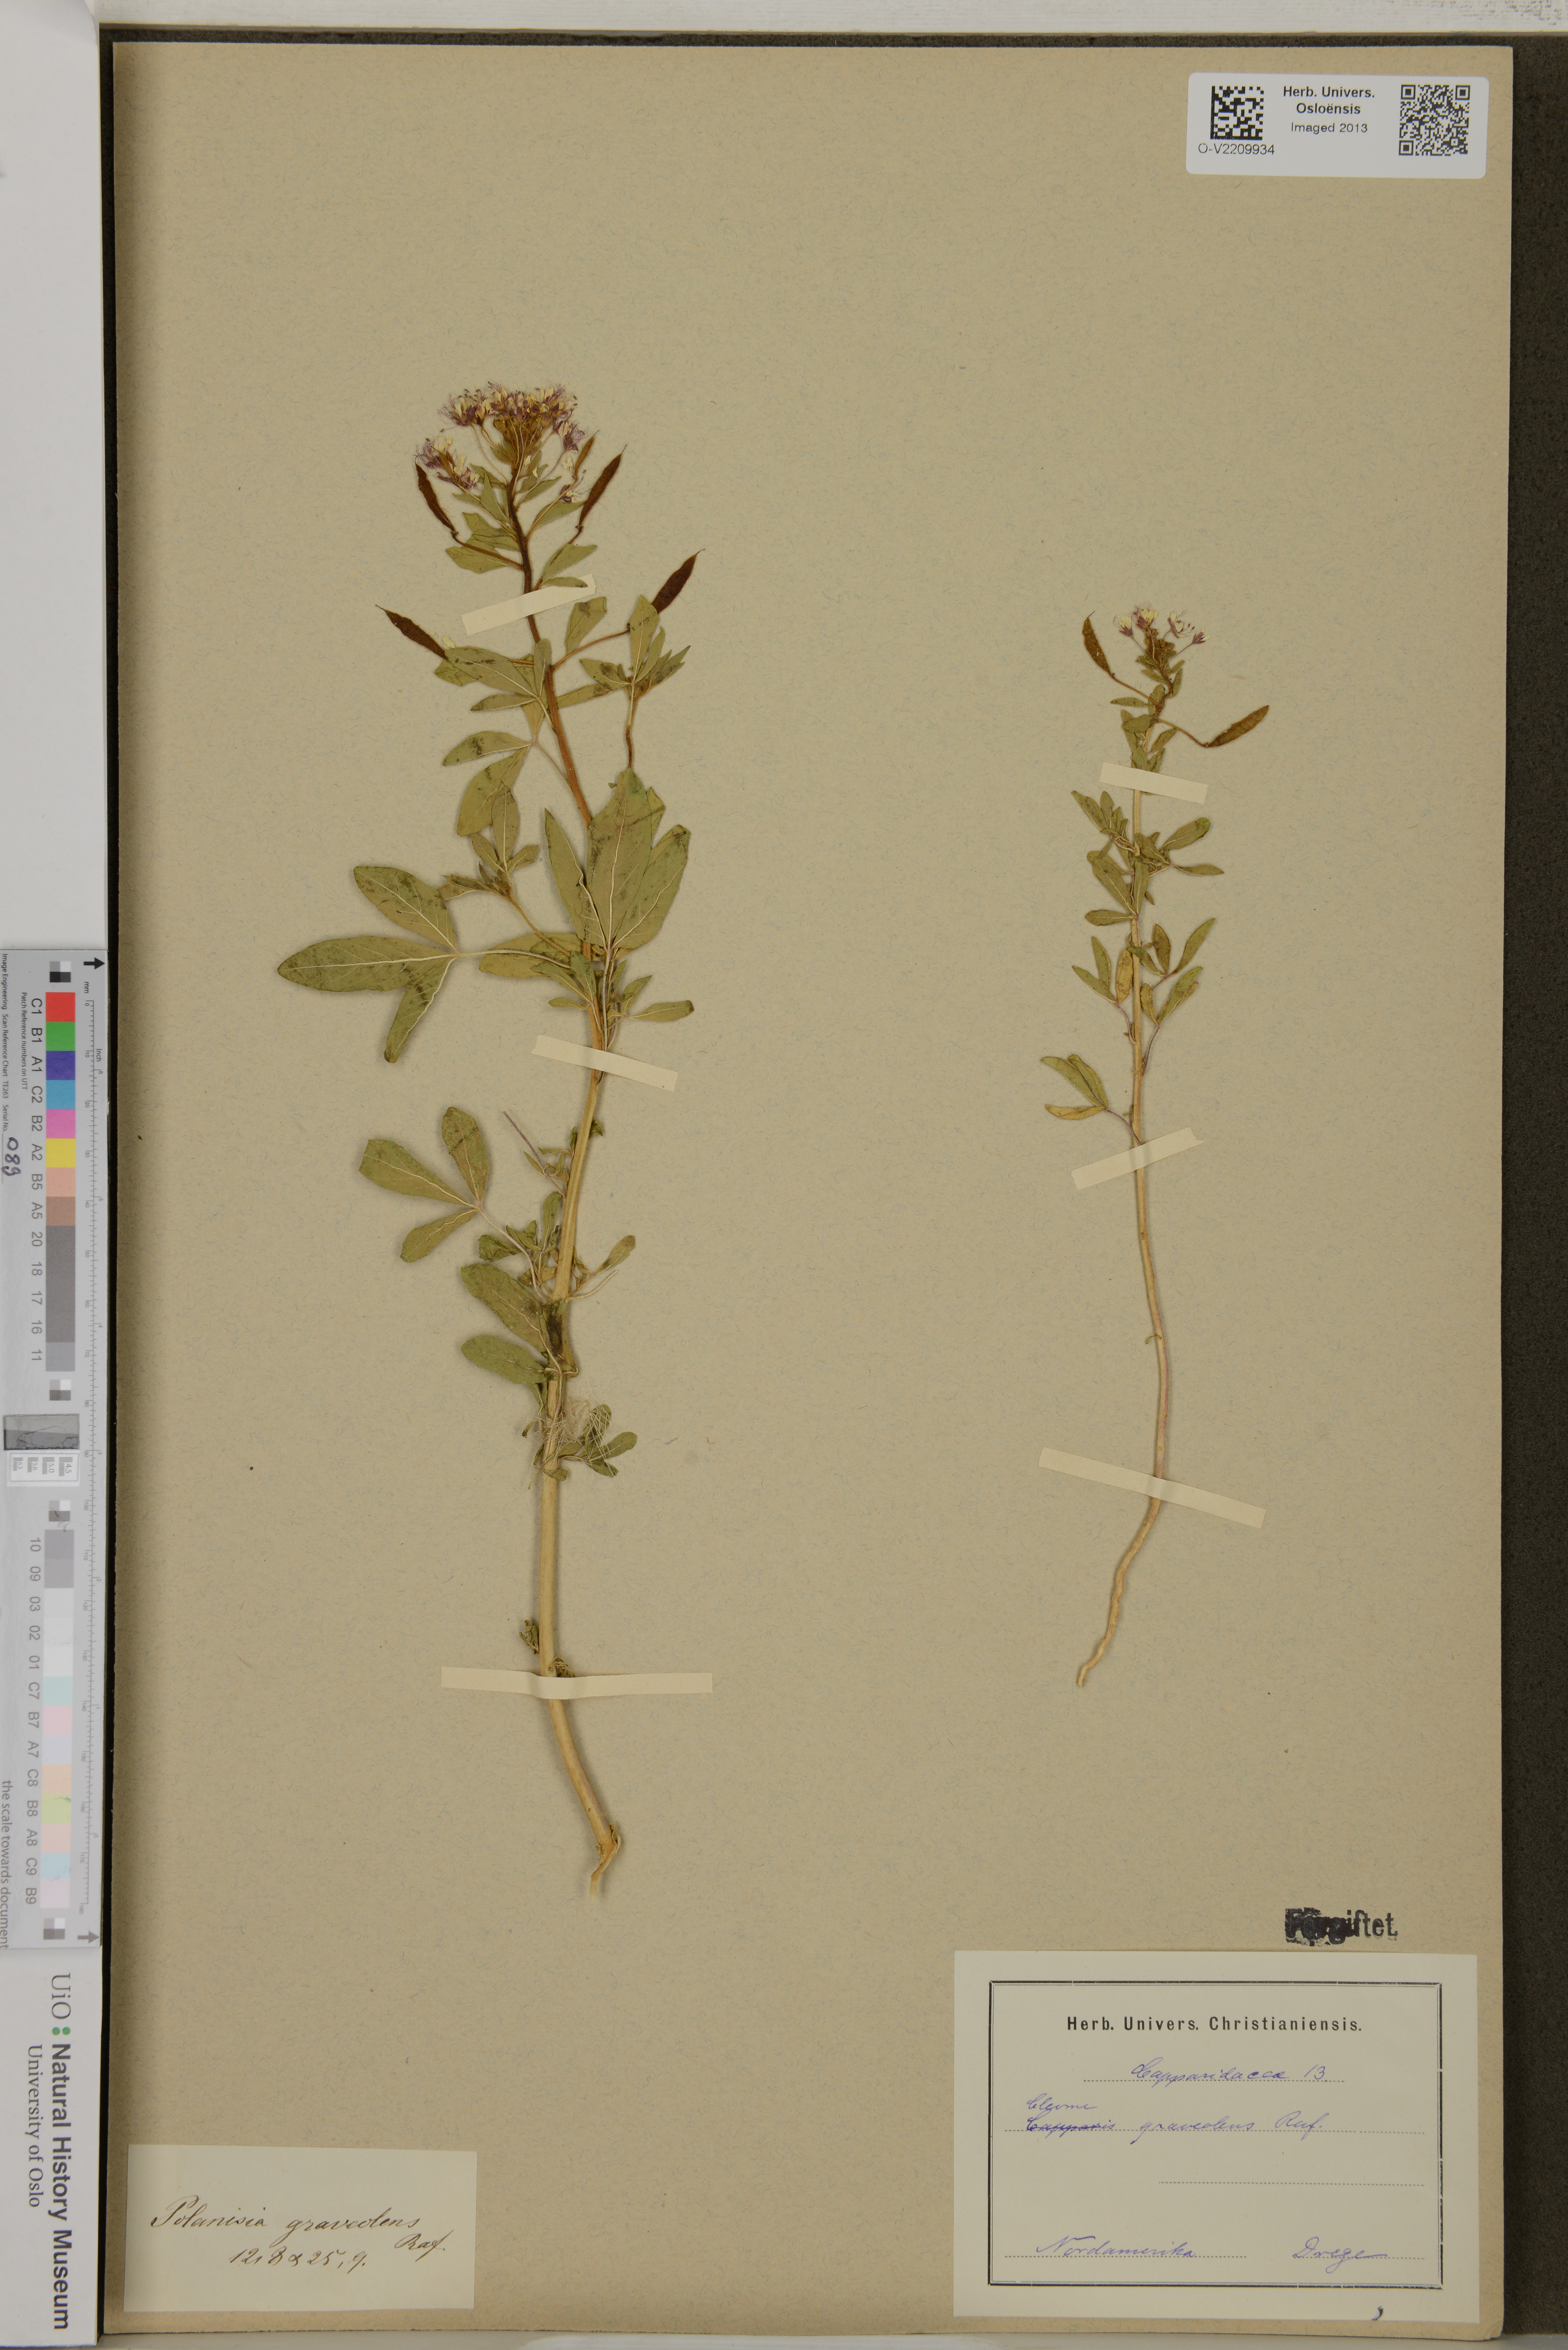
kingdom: Plantae
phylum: Tracheophyta
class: Magnoliopsida
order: Brassicales
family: Cleomaceae
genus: Cleome
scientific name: Cleome graveolens
